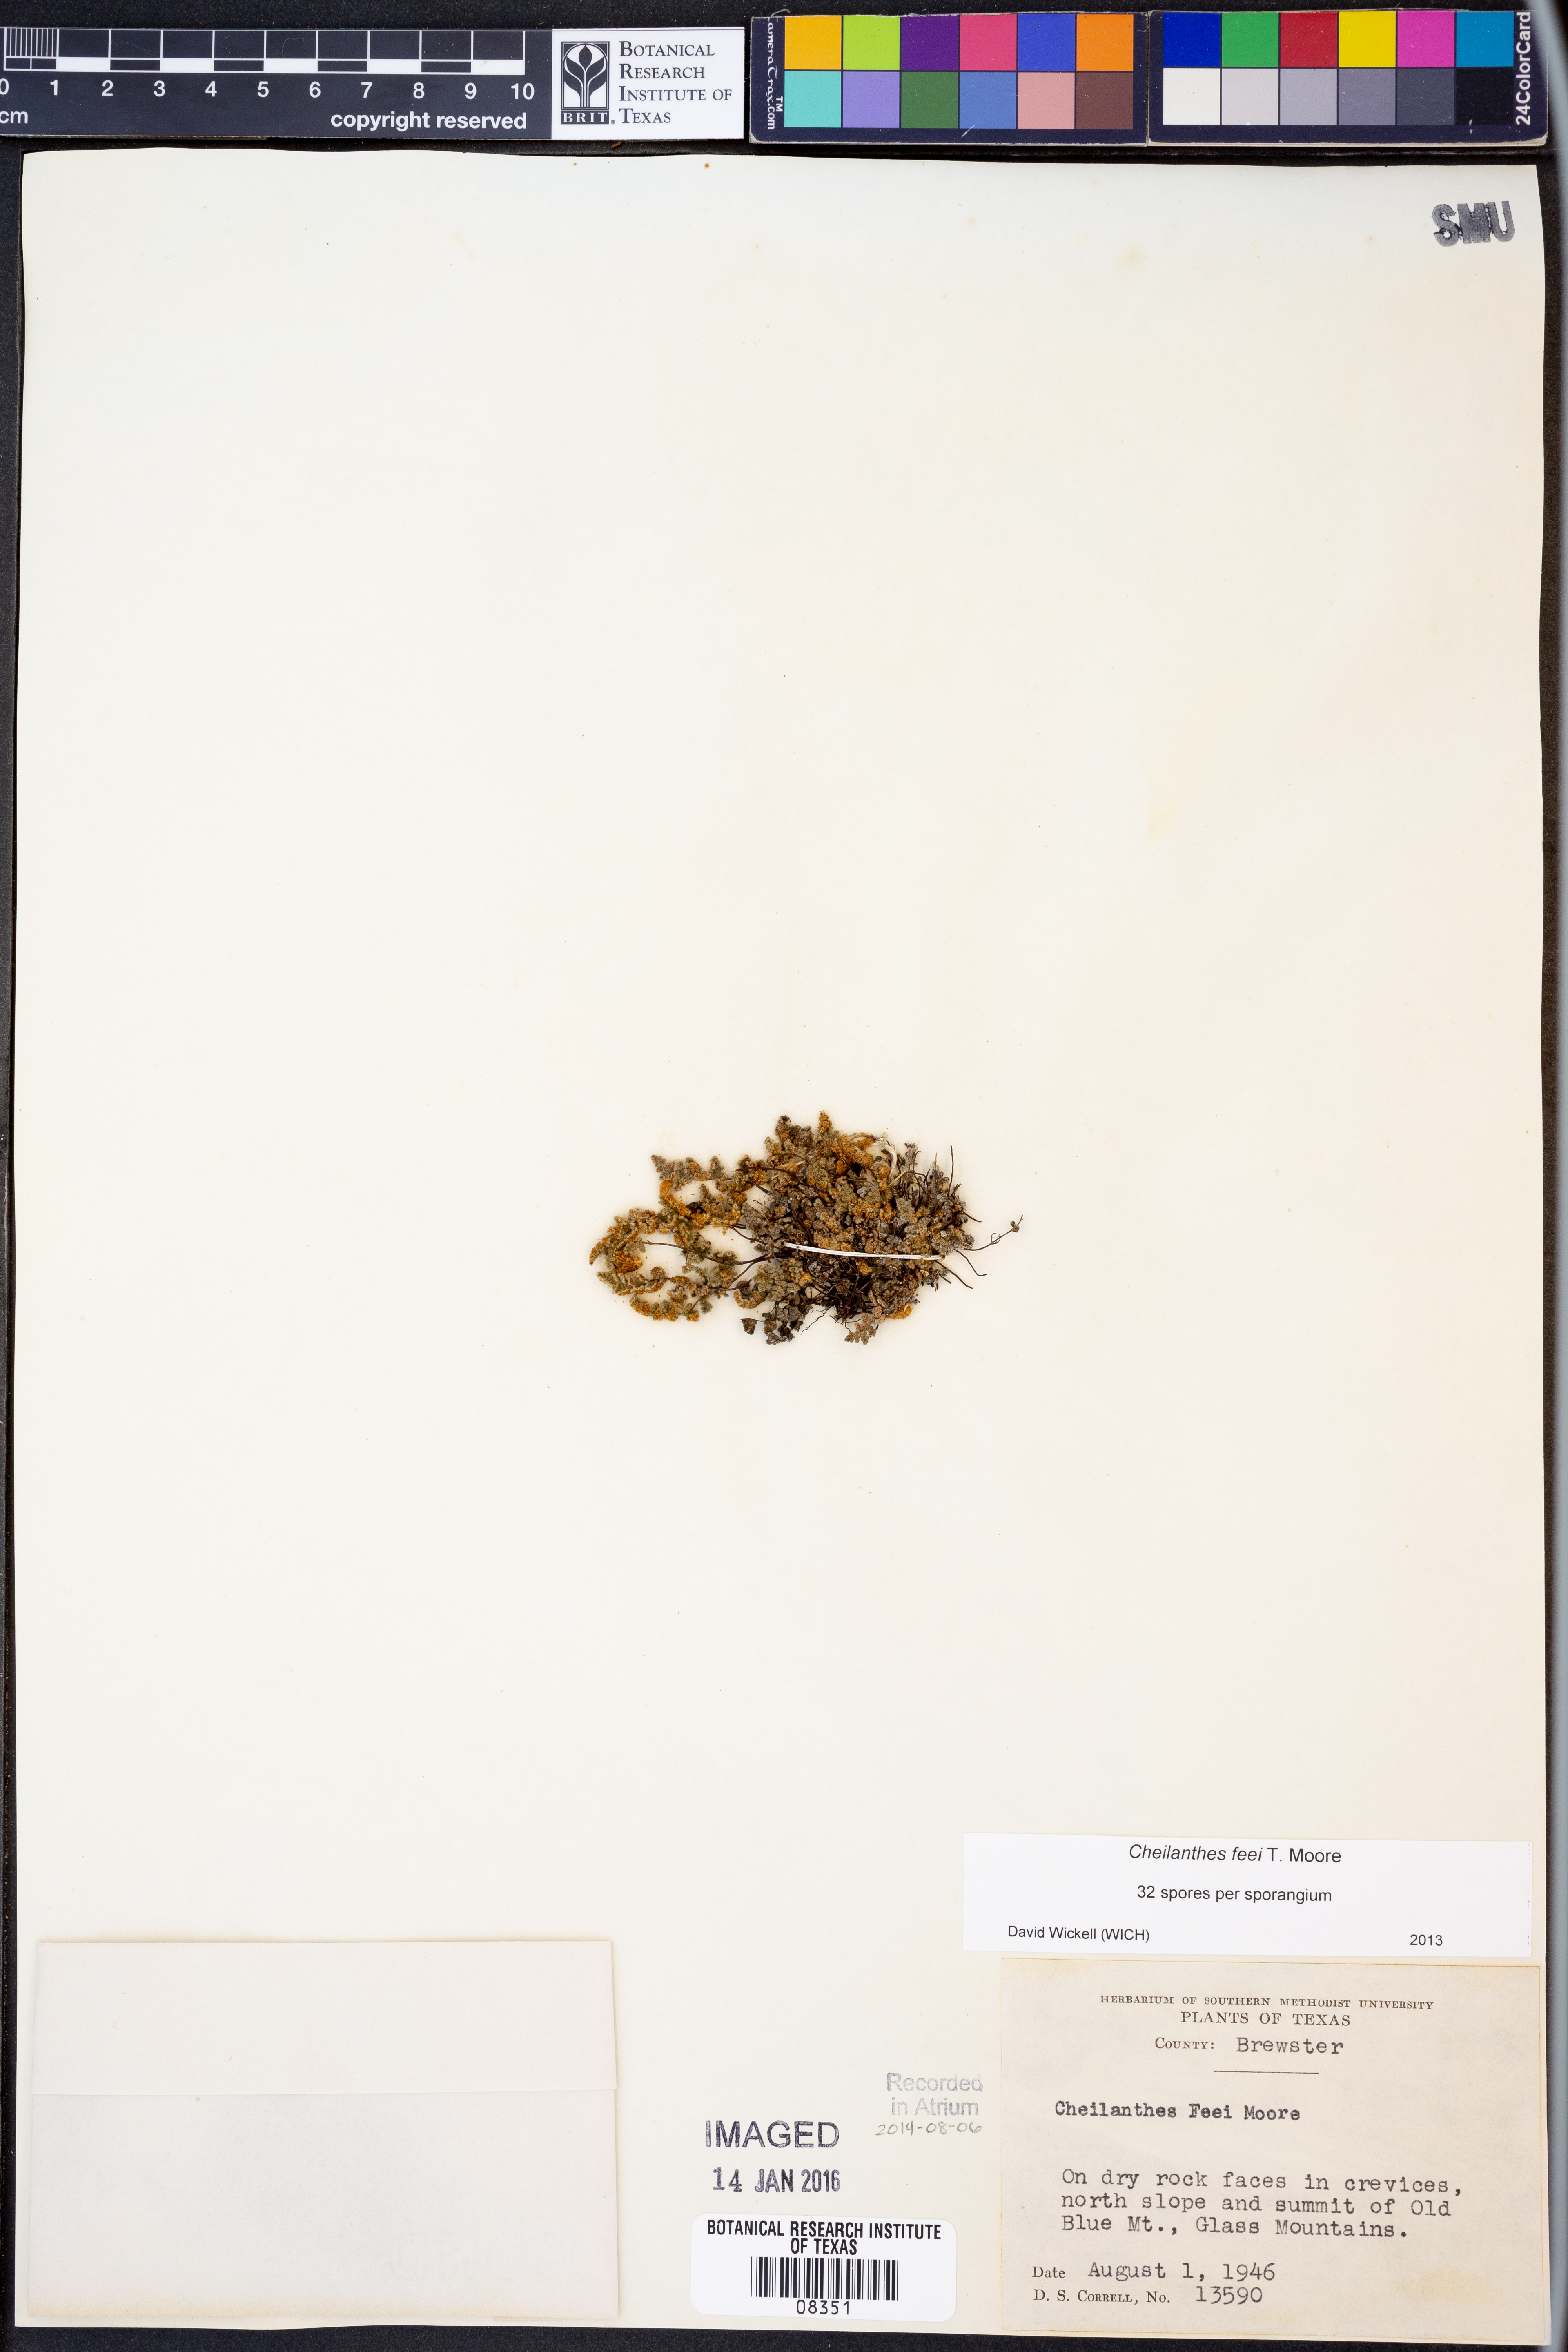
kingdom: Plantae
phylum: Tracheophyta
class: Polypodiopsida
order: Polypodiales
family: Pteridaceae
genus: Myriopteris
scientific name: Myriopteris gracilis
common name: Fee's lip fern
